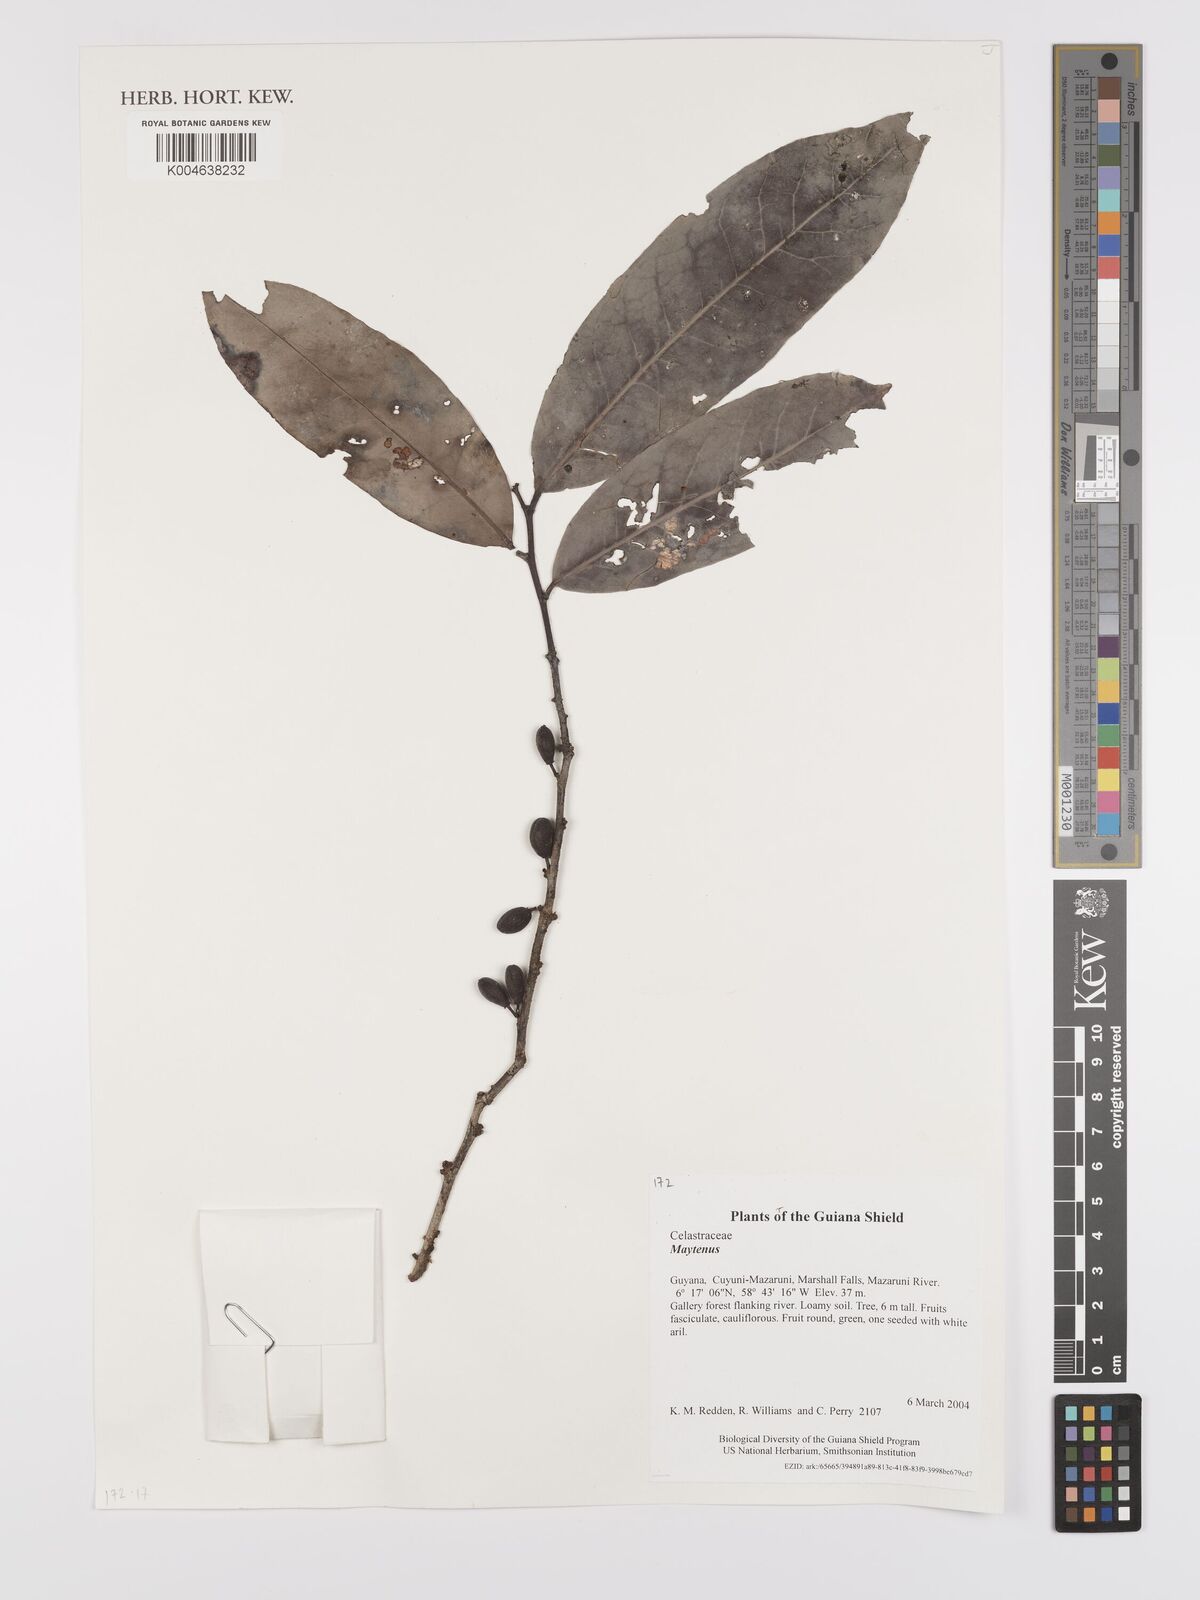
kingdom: Plantae
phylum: Tracheophyta
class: Magnoliopsida
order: Celastrales
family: Celastraceae
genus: Maytenus
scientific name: Maytenus
